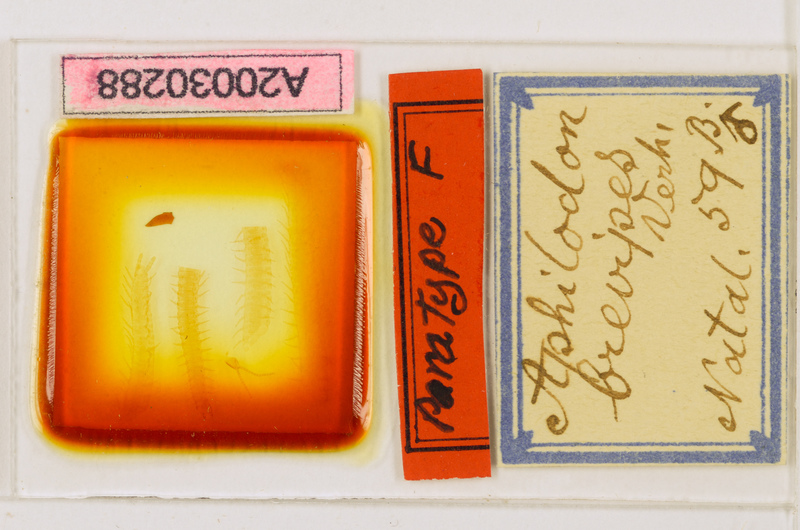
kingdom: Animalia
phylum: Arthropoda
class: Chilopoda
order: Geophilomorpha
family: Aphilodontidae
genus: Aphilodon
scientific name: Aphilodon brevipes
